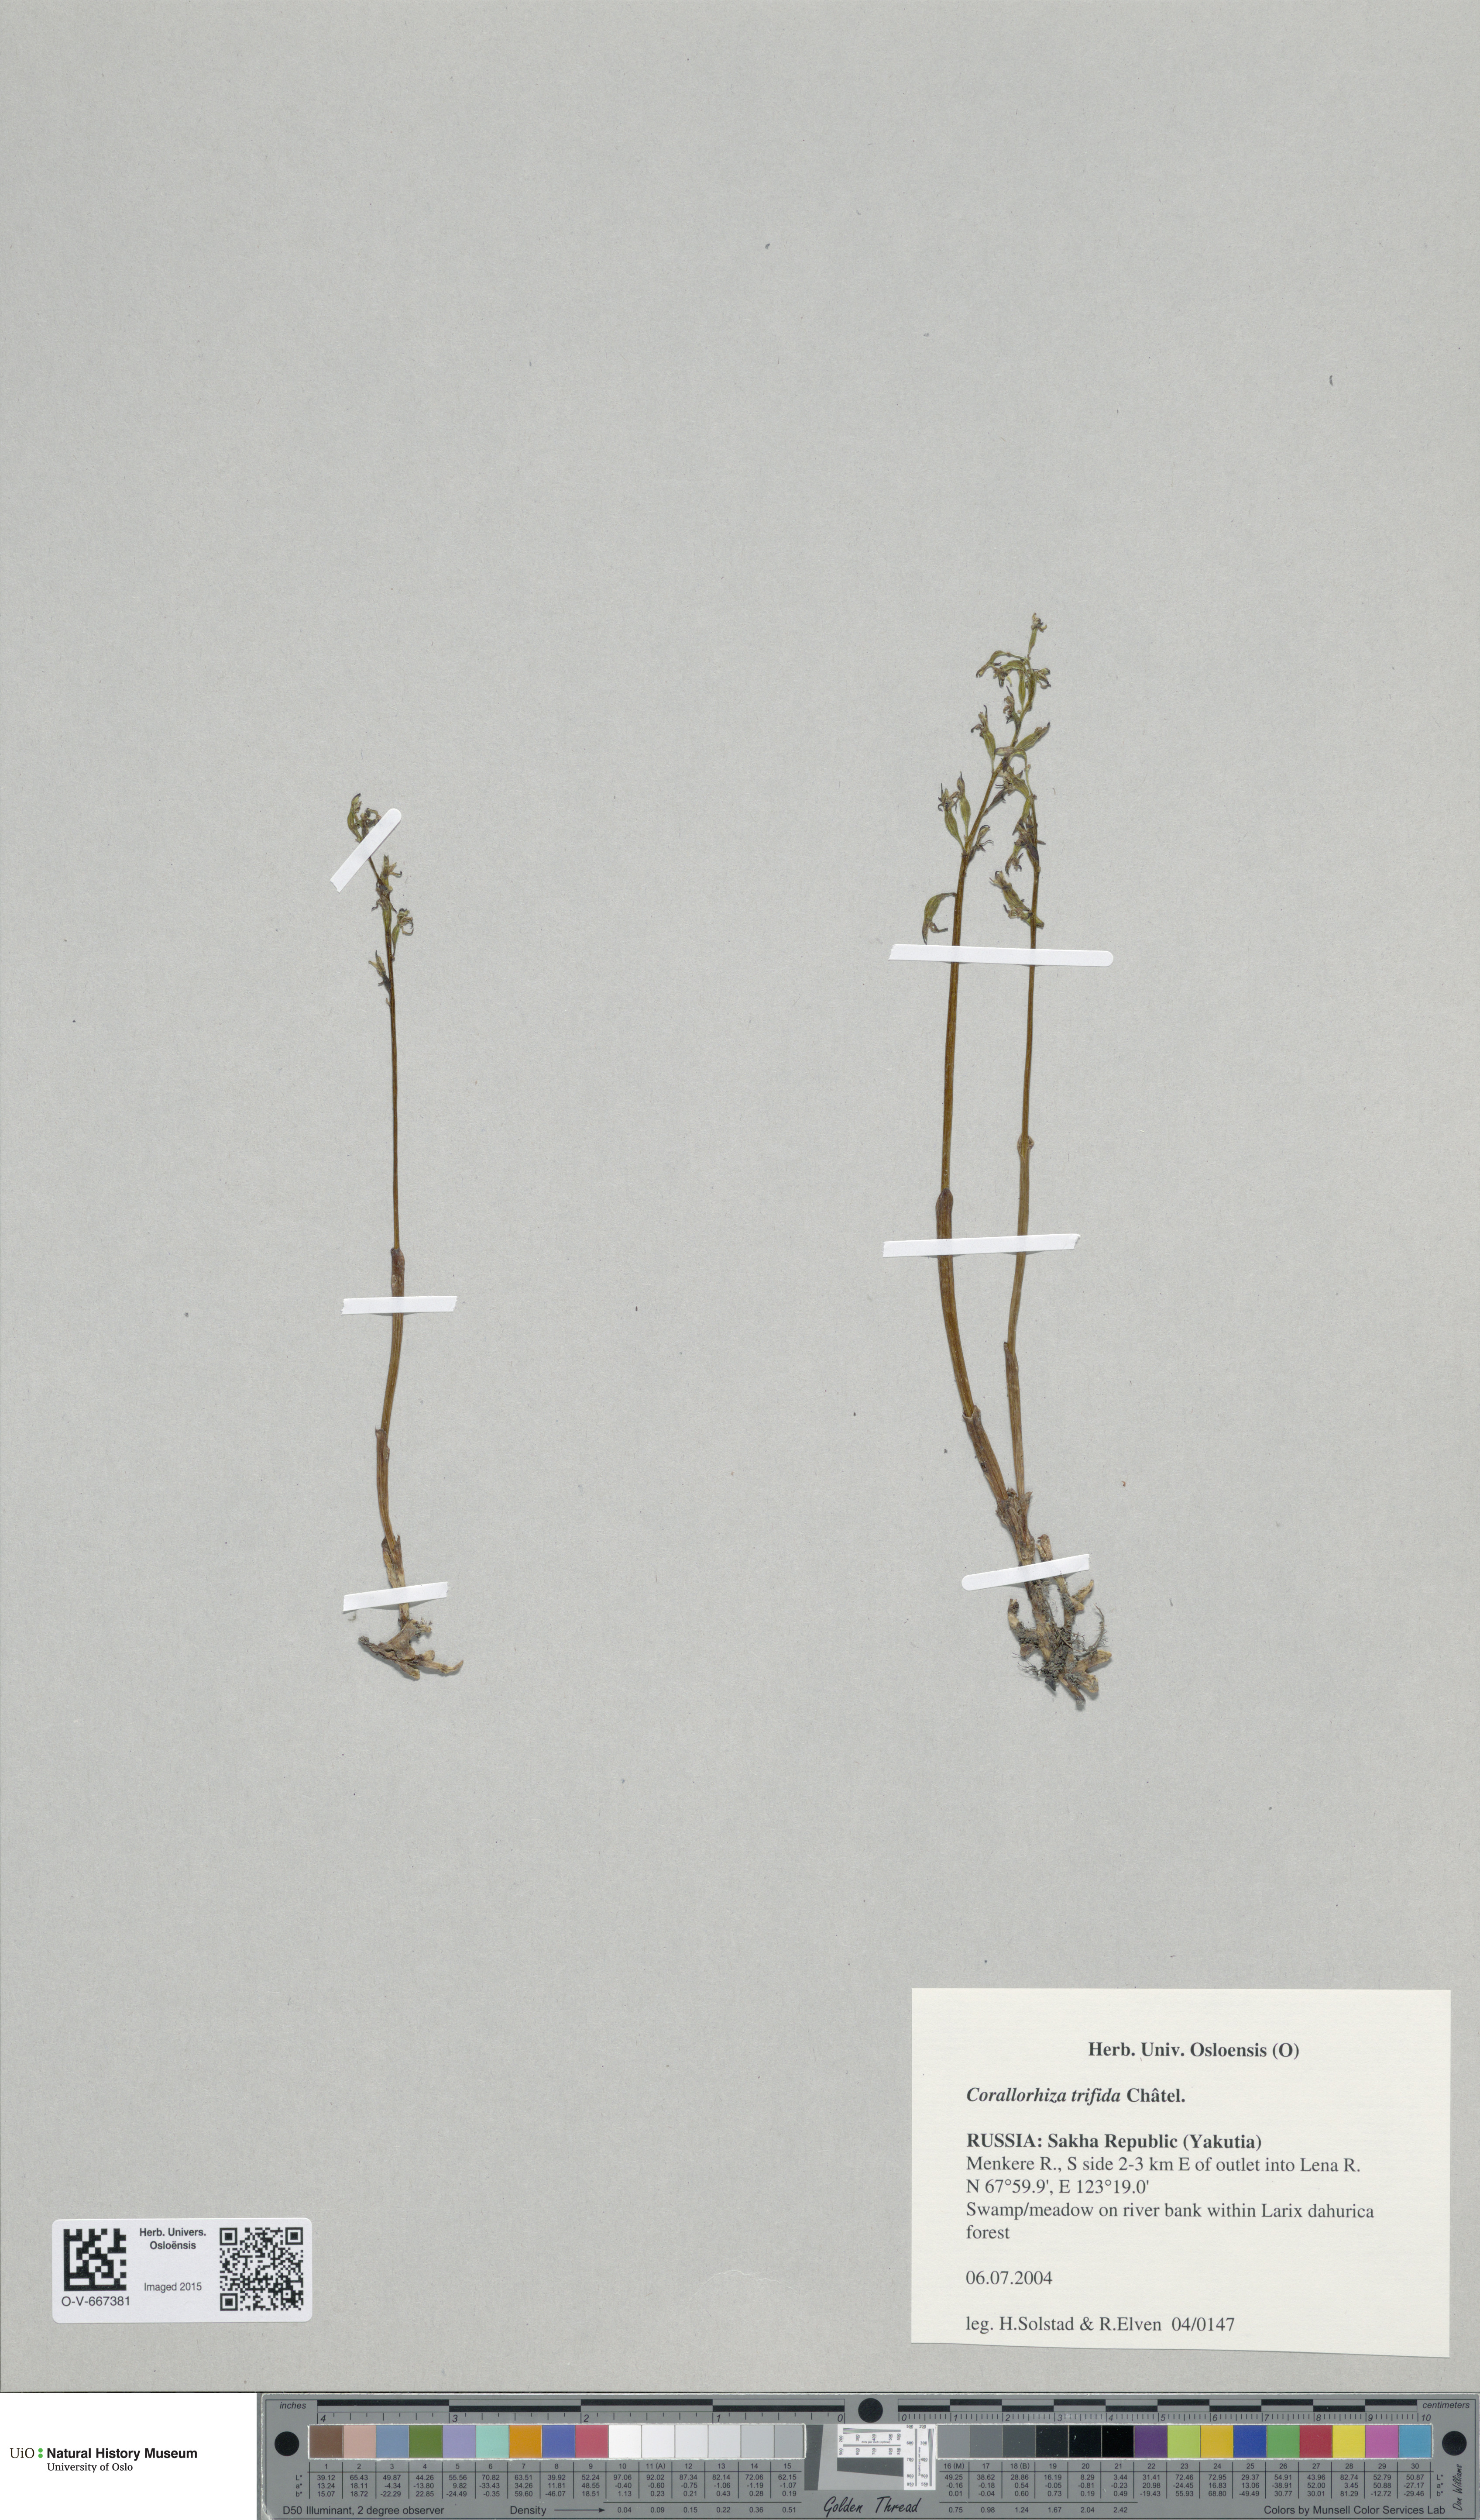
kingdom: Plantae
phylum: Tracheophyta
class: Liliopsida
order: Asparagales
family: Orchidaceae
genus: Corallorhiza
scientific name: Corallorhiza trifida
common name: Yellow coralroot
